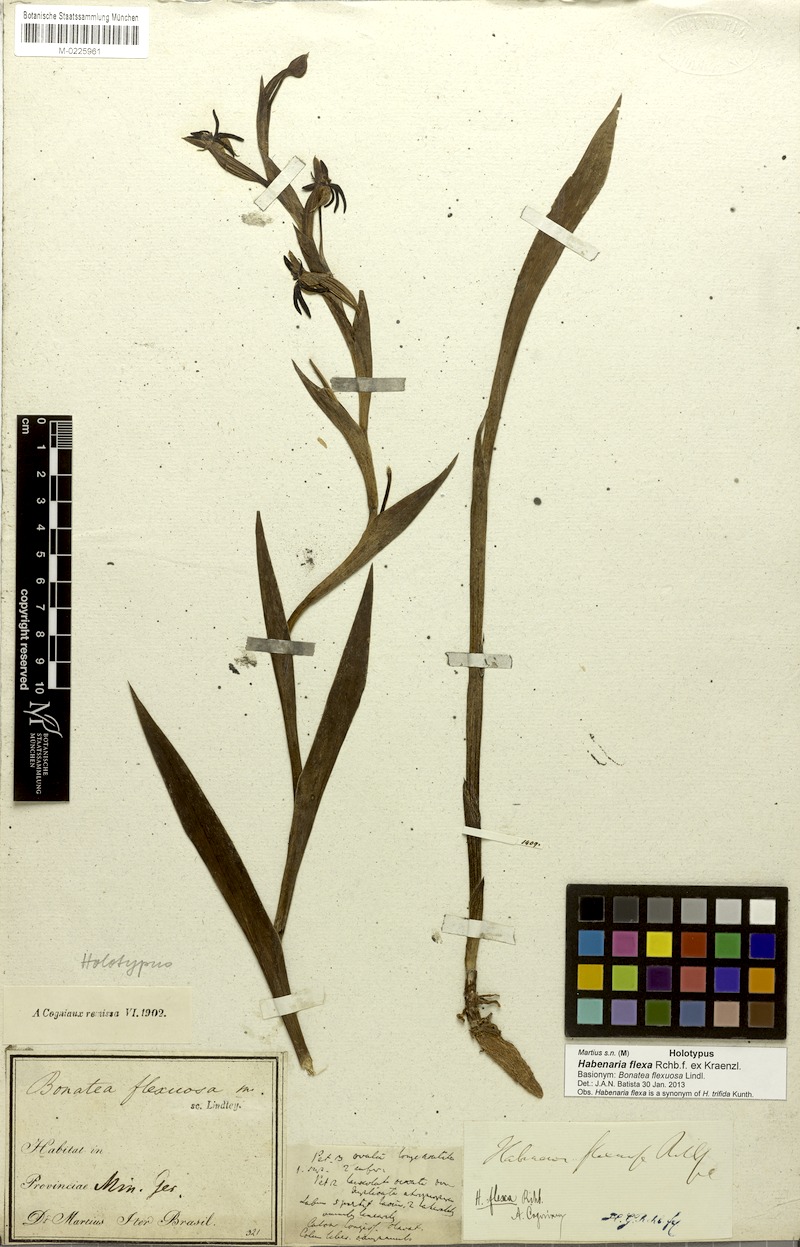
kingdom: Plantae
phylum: Tracheophyta
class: Liliopsida
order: Asparagales
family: Orchidaceae
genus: Habenaria
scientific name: Habenaria trifida
